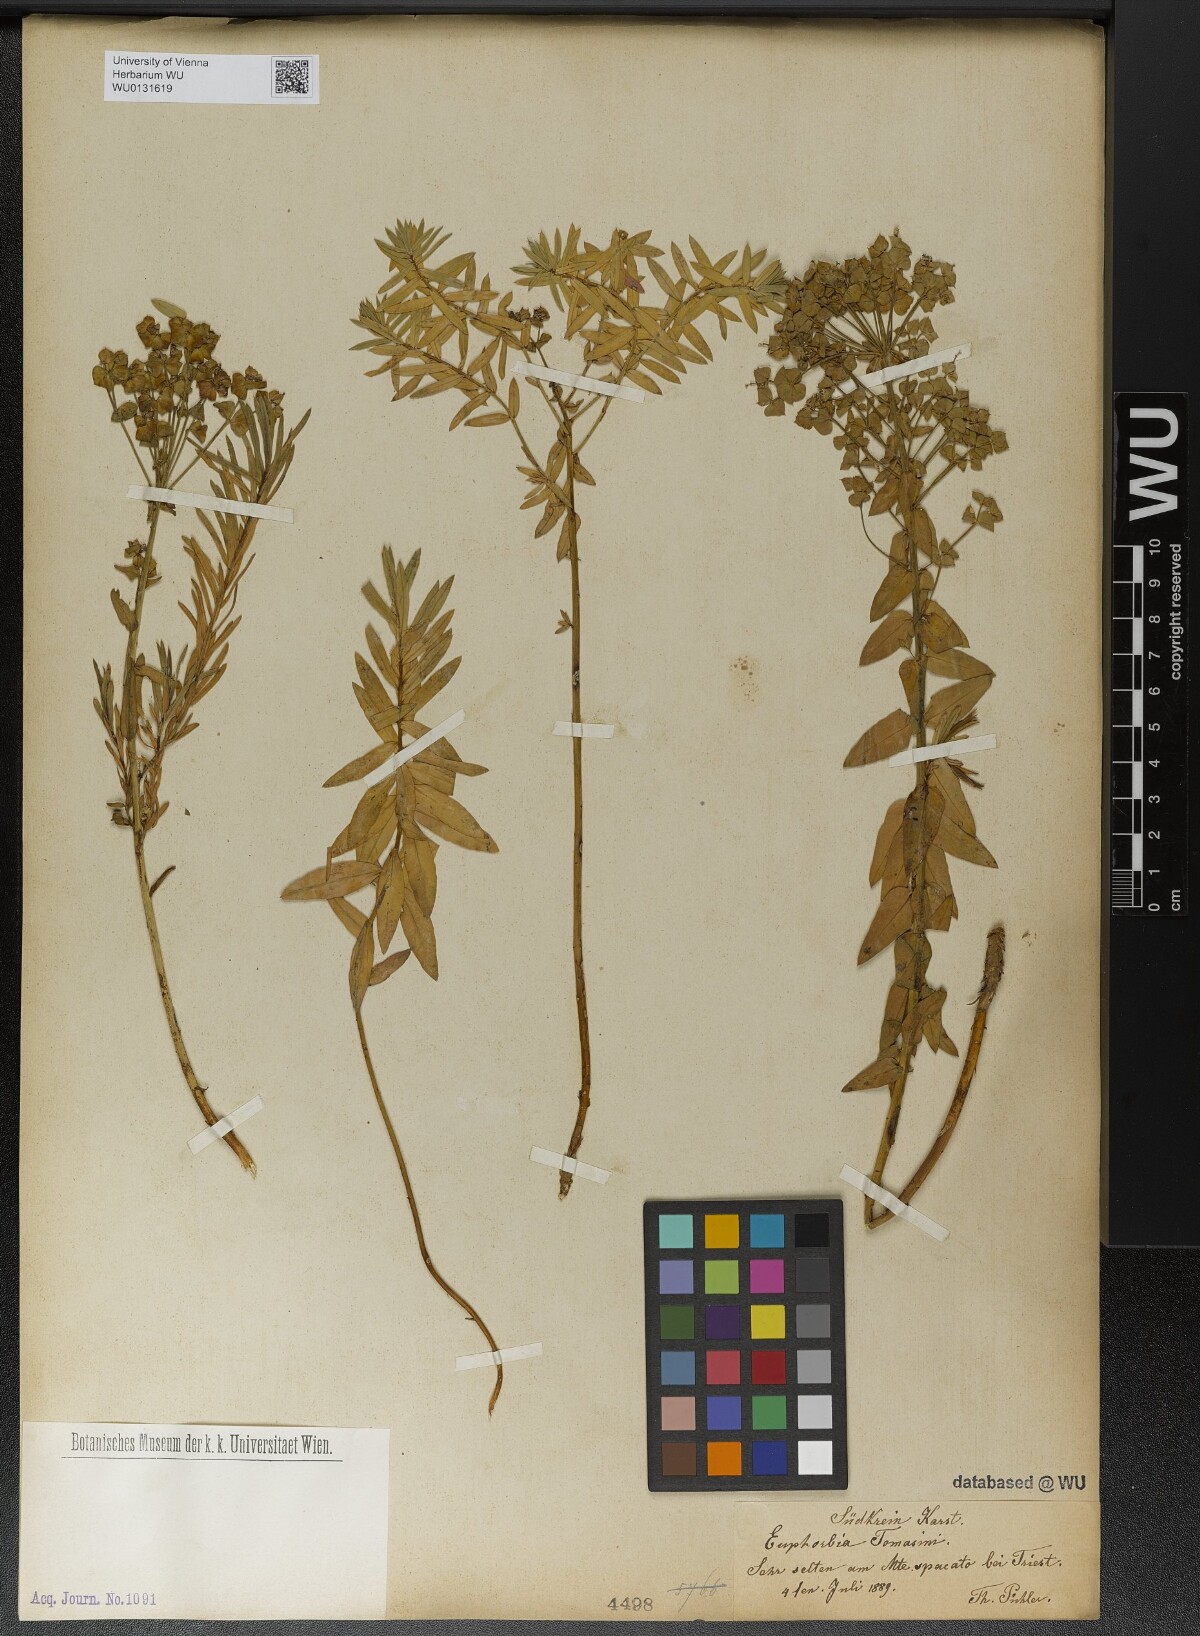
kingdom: Plantae
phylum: Tracheophyta
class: Magnoliopsida
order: Malpighiales
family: Euphorbiaceae
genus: Euphorbia
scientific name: Euphorbia tommasiniana
